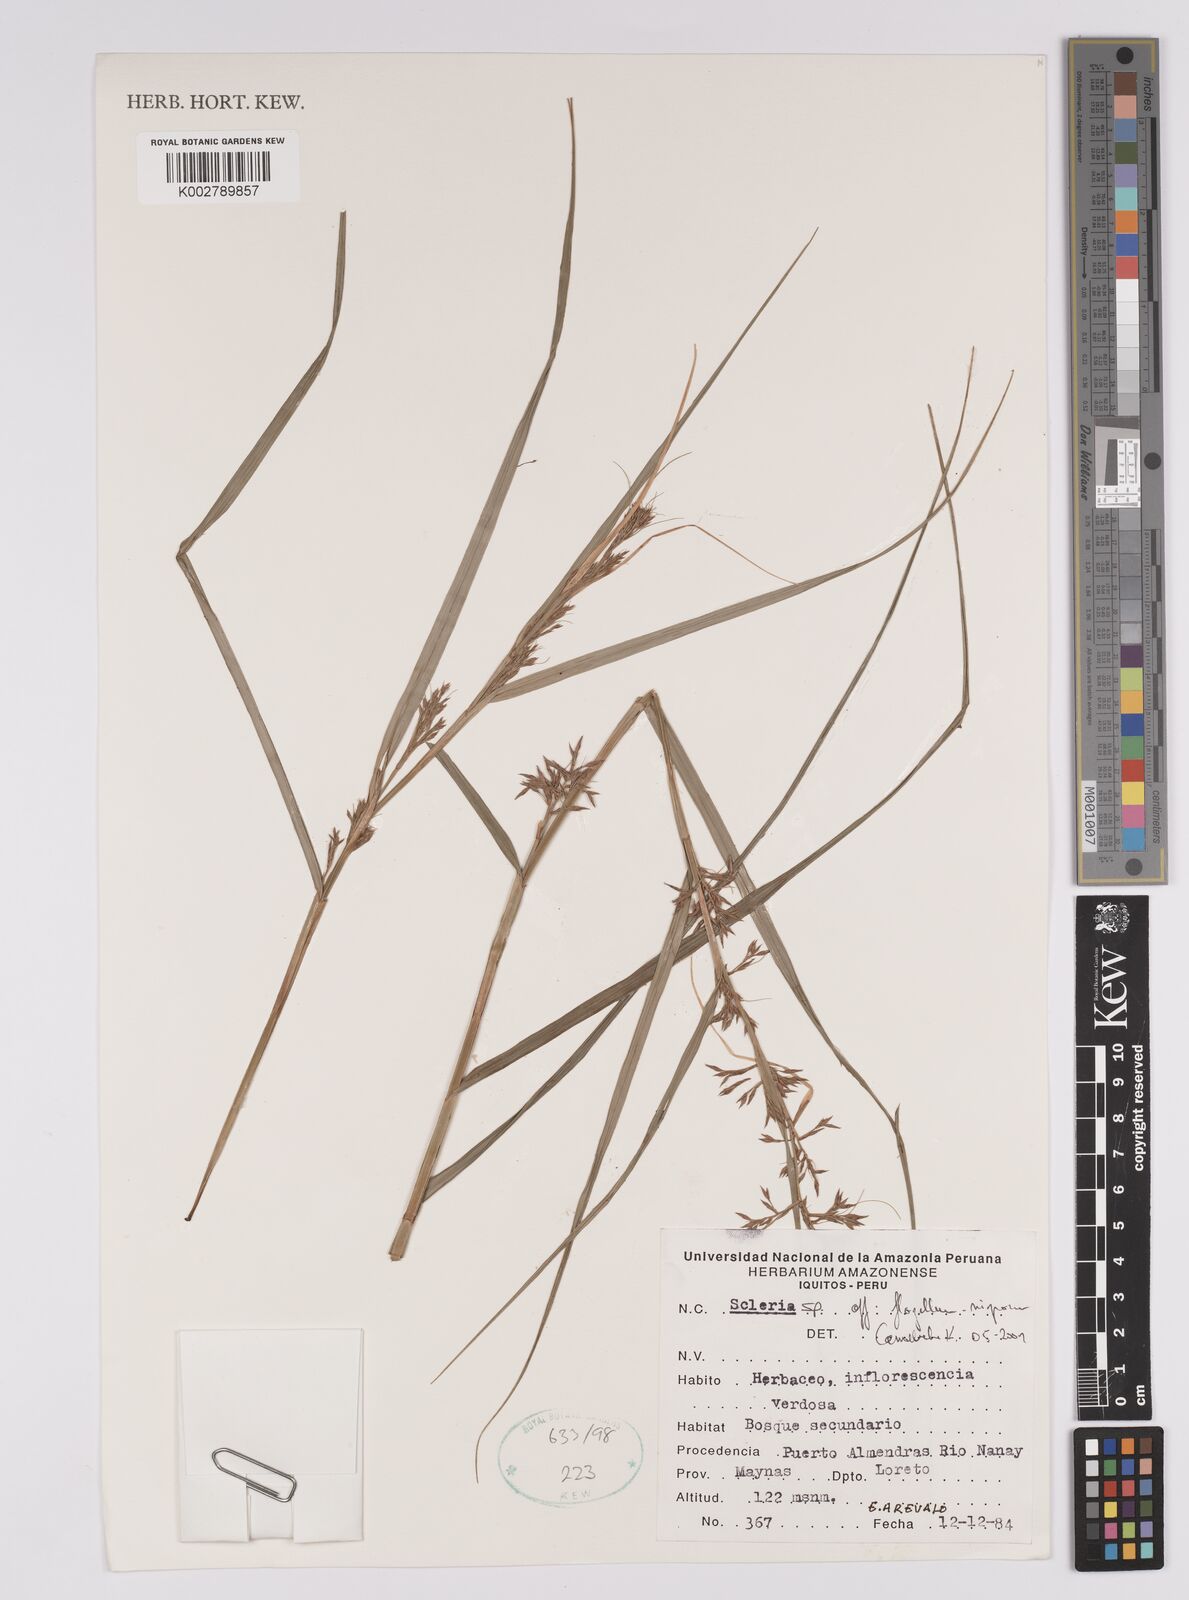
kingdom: Plantae
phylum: Tracheophyta
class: Liliopsida
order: Poales
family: Cyperaceae
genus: Scleria
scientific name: Scleria flagellum-nigrorum
